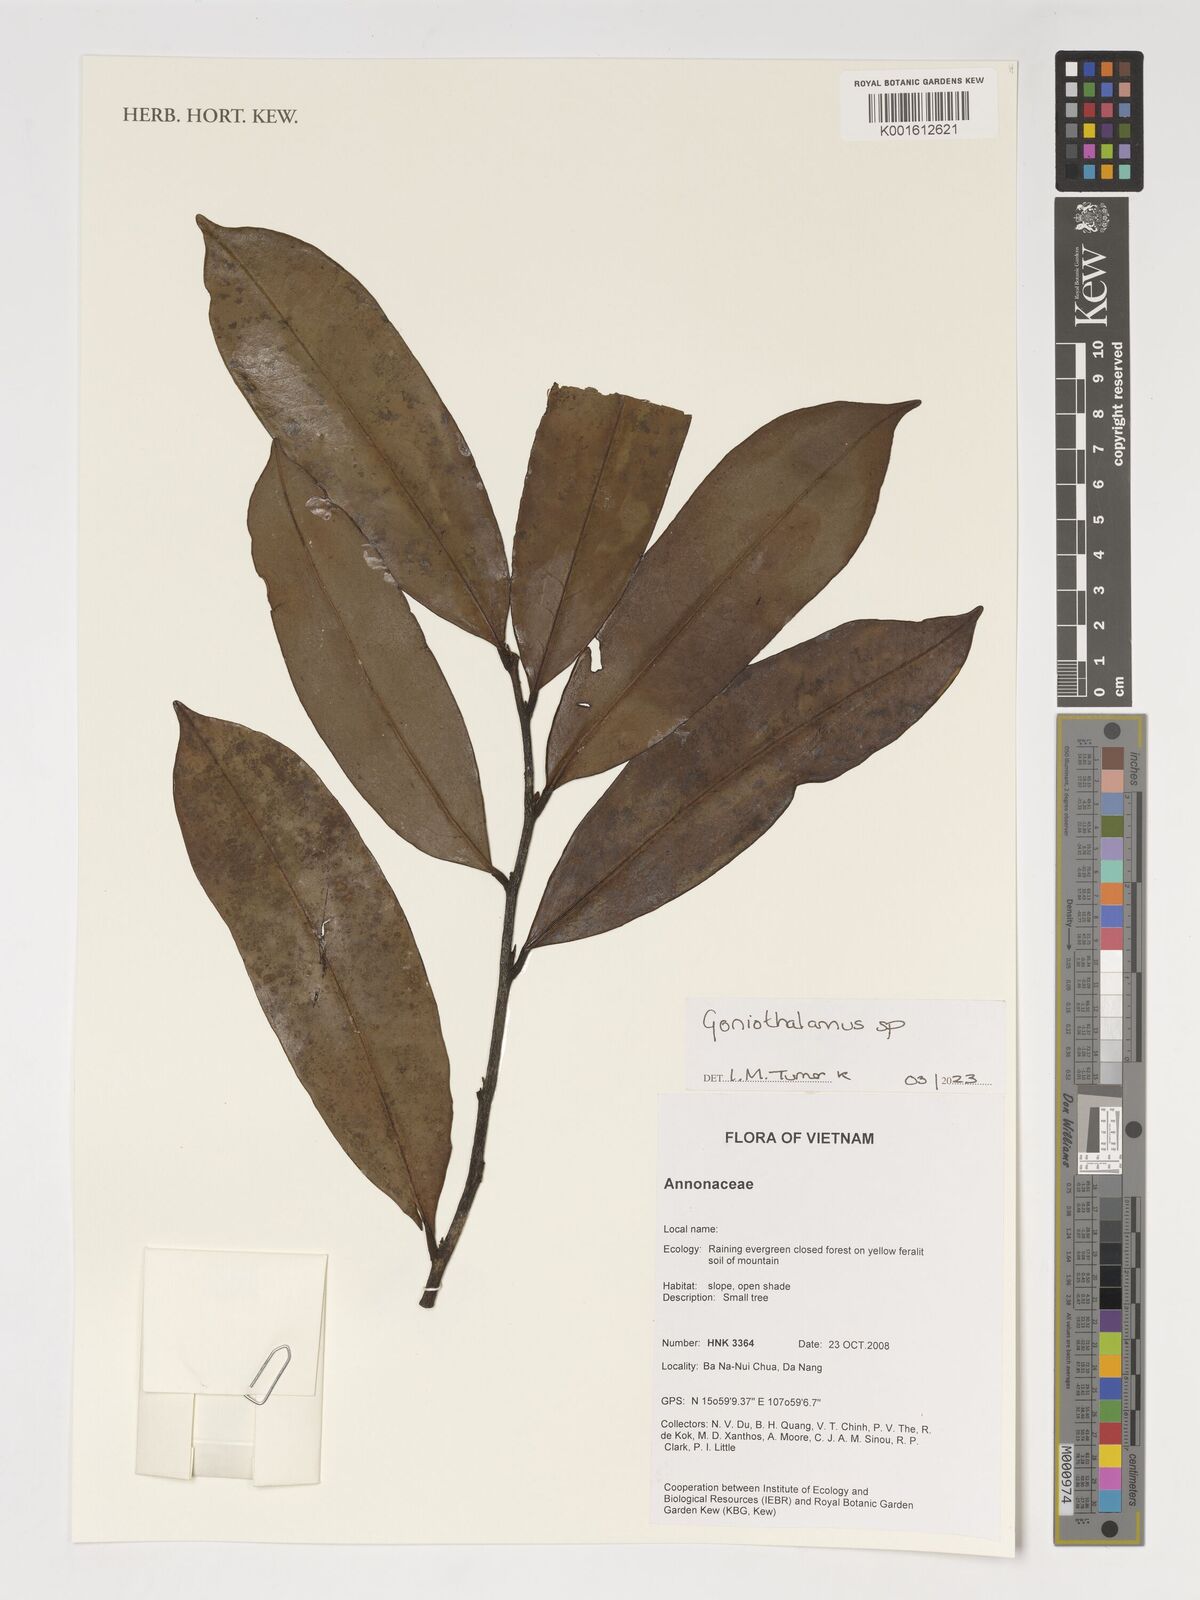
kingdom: Plantae
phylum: Tracheophyta
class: Magnoliopsida
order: Magnoliales
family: Annonaceae
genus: Goniothalamus
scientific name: Goniothalamus
